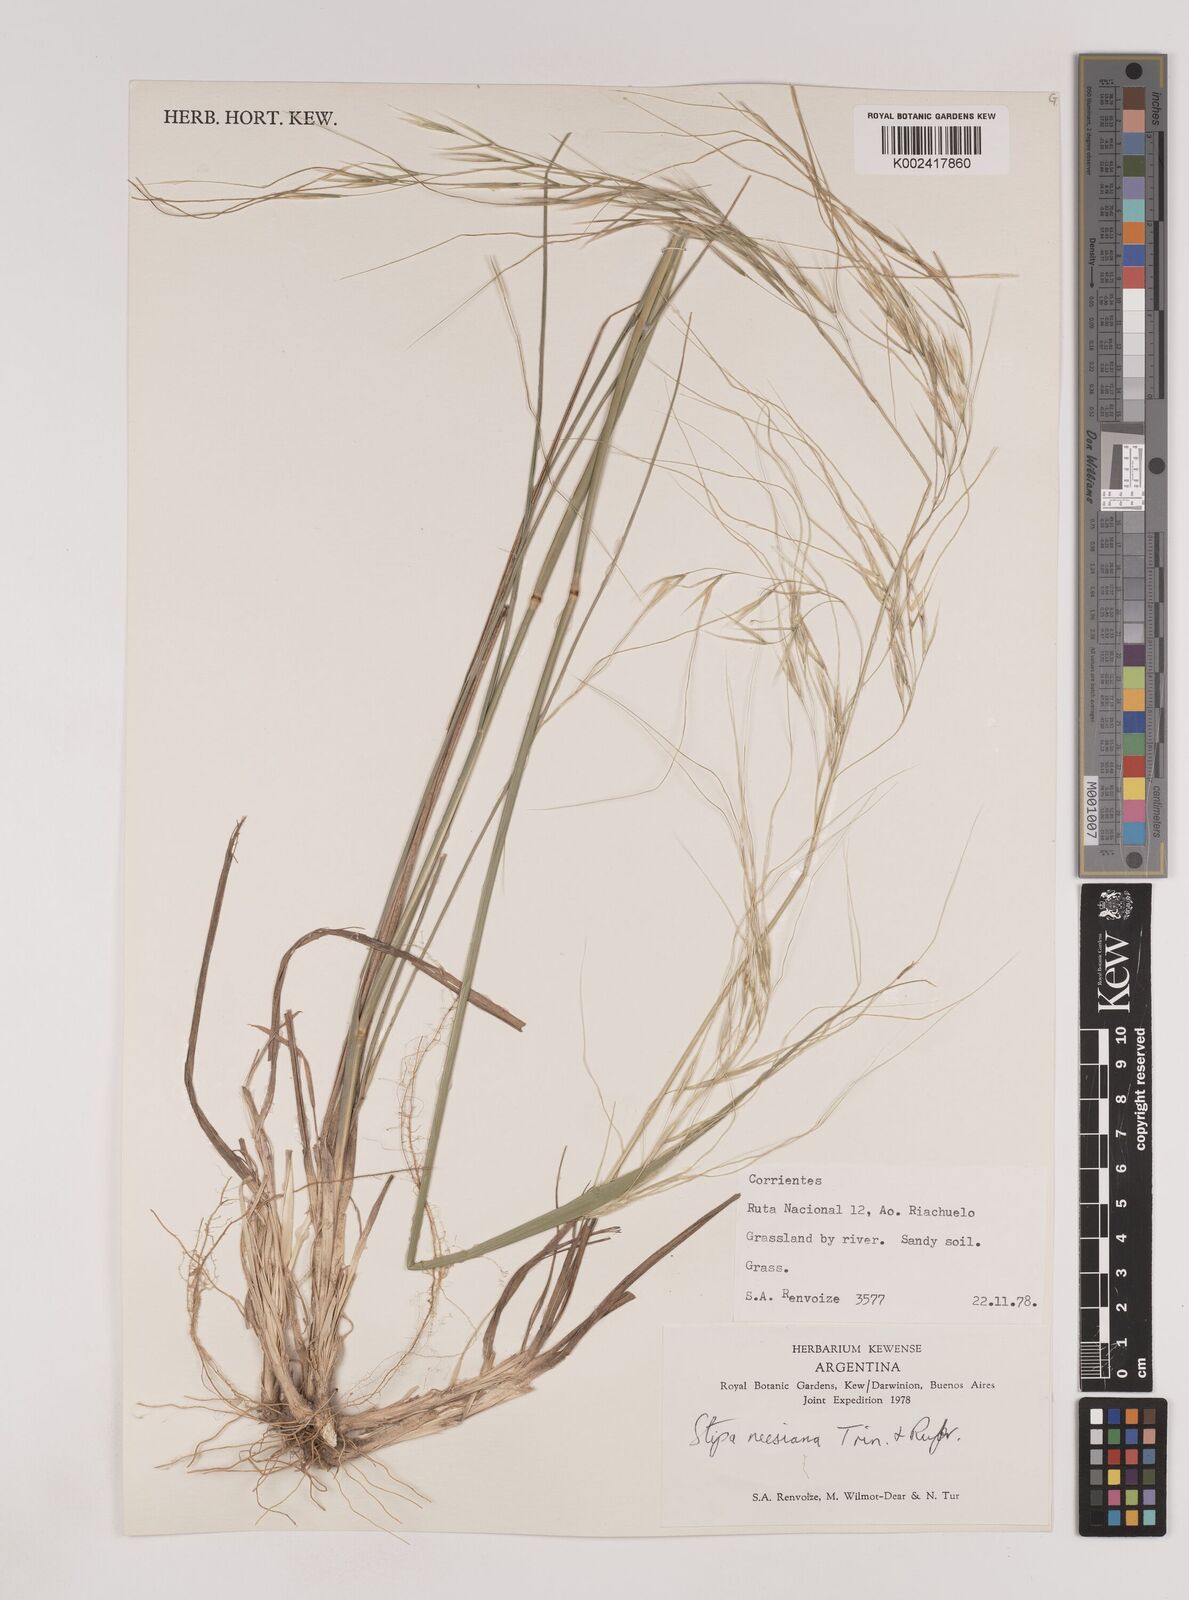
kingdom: Plantae
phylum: Tracheophyta
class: Liliopsida
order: Poales
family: Poaceae
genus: Nassella
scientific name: Nassella neesiana
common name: American needle-grass
